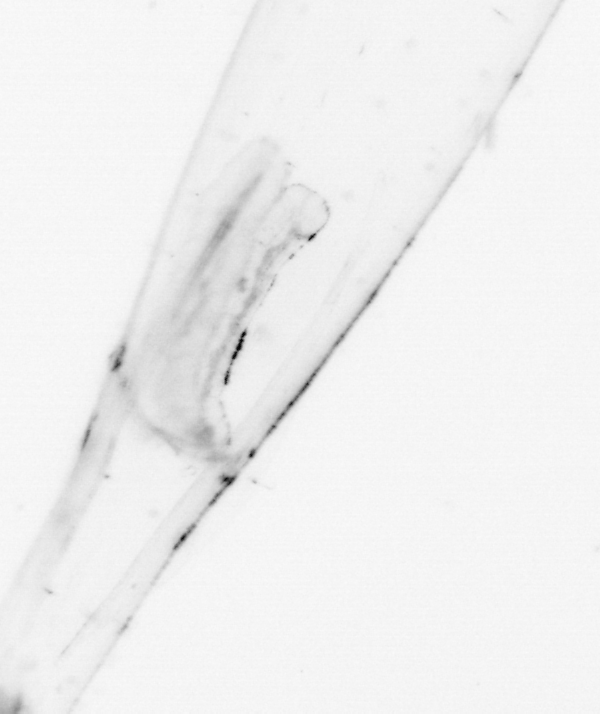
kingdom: Animalia
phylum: Chaetognatha
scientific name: Chaetognatha
